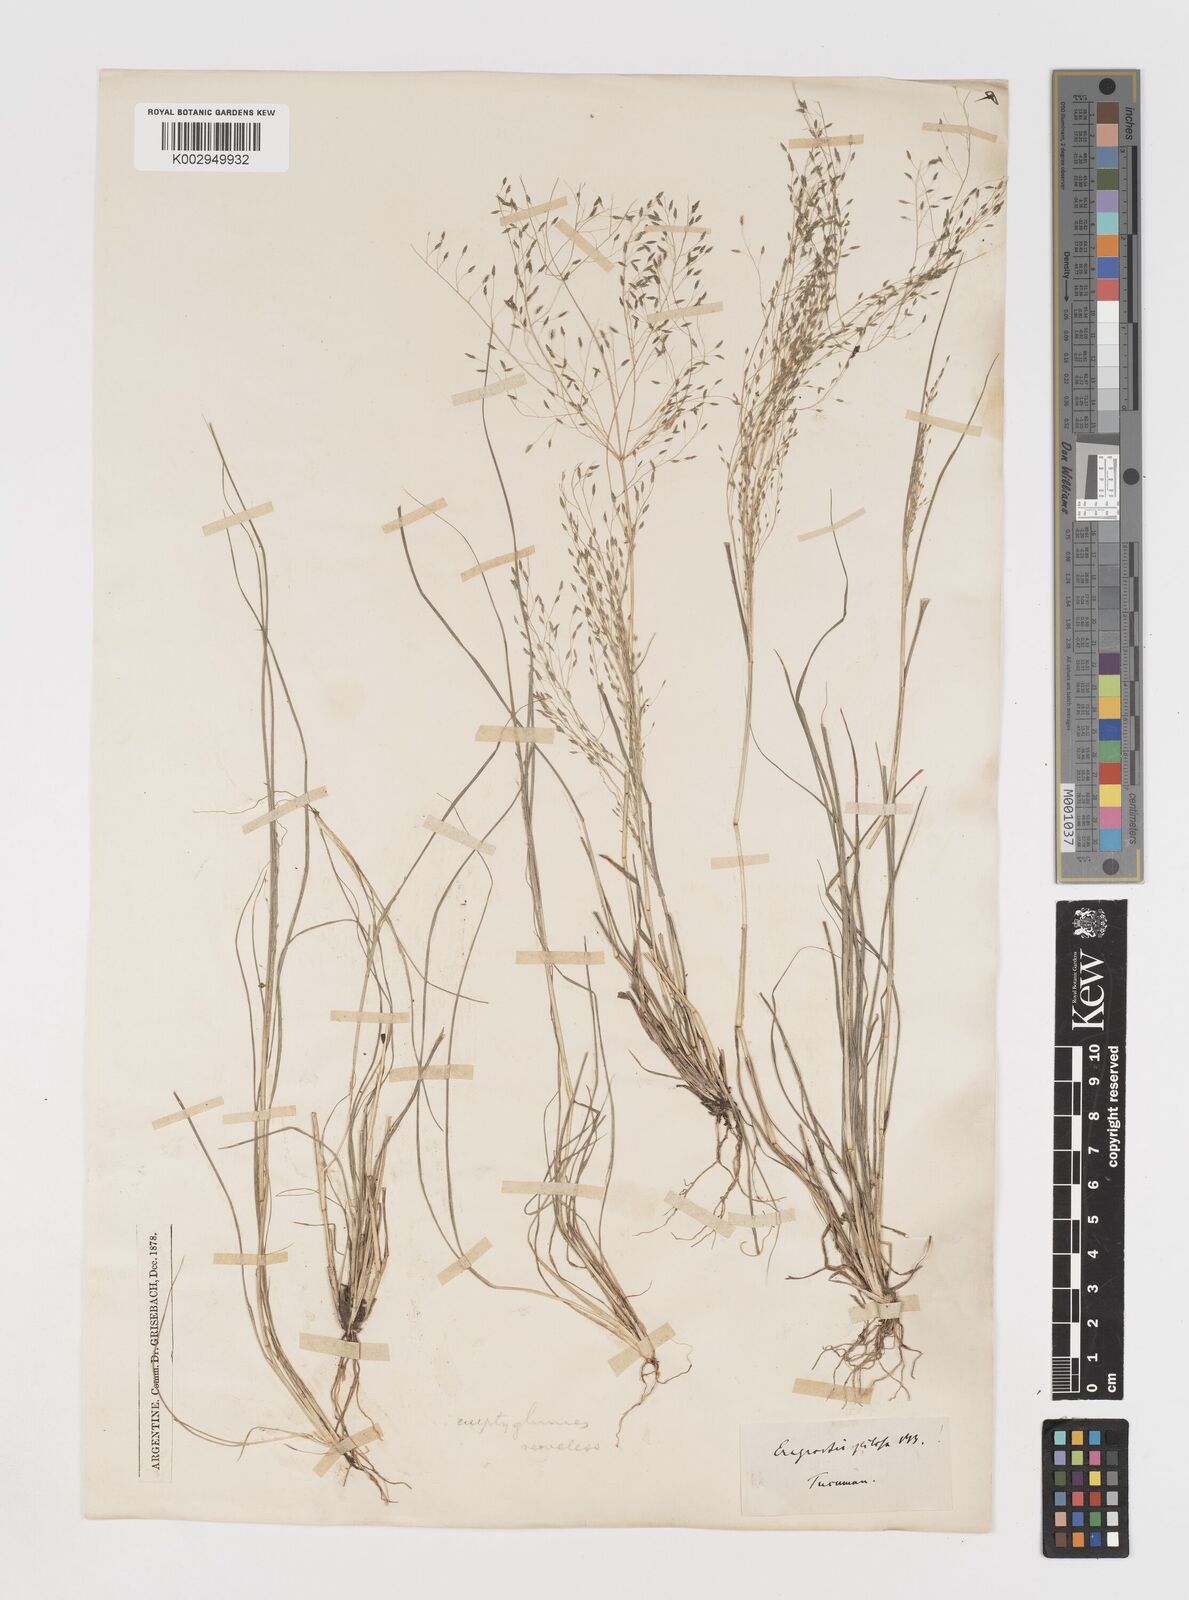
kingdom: Plantae
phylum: Tracheophyta
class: Liliopsida
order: Poales
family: Poaceae
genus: Eragrostis
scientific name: Eragrostis lugens
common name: Mourning love grass
